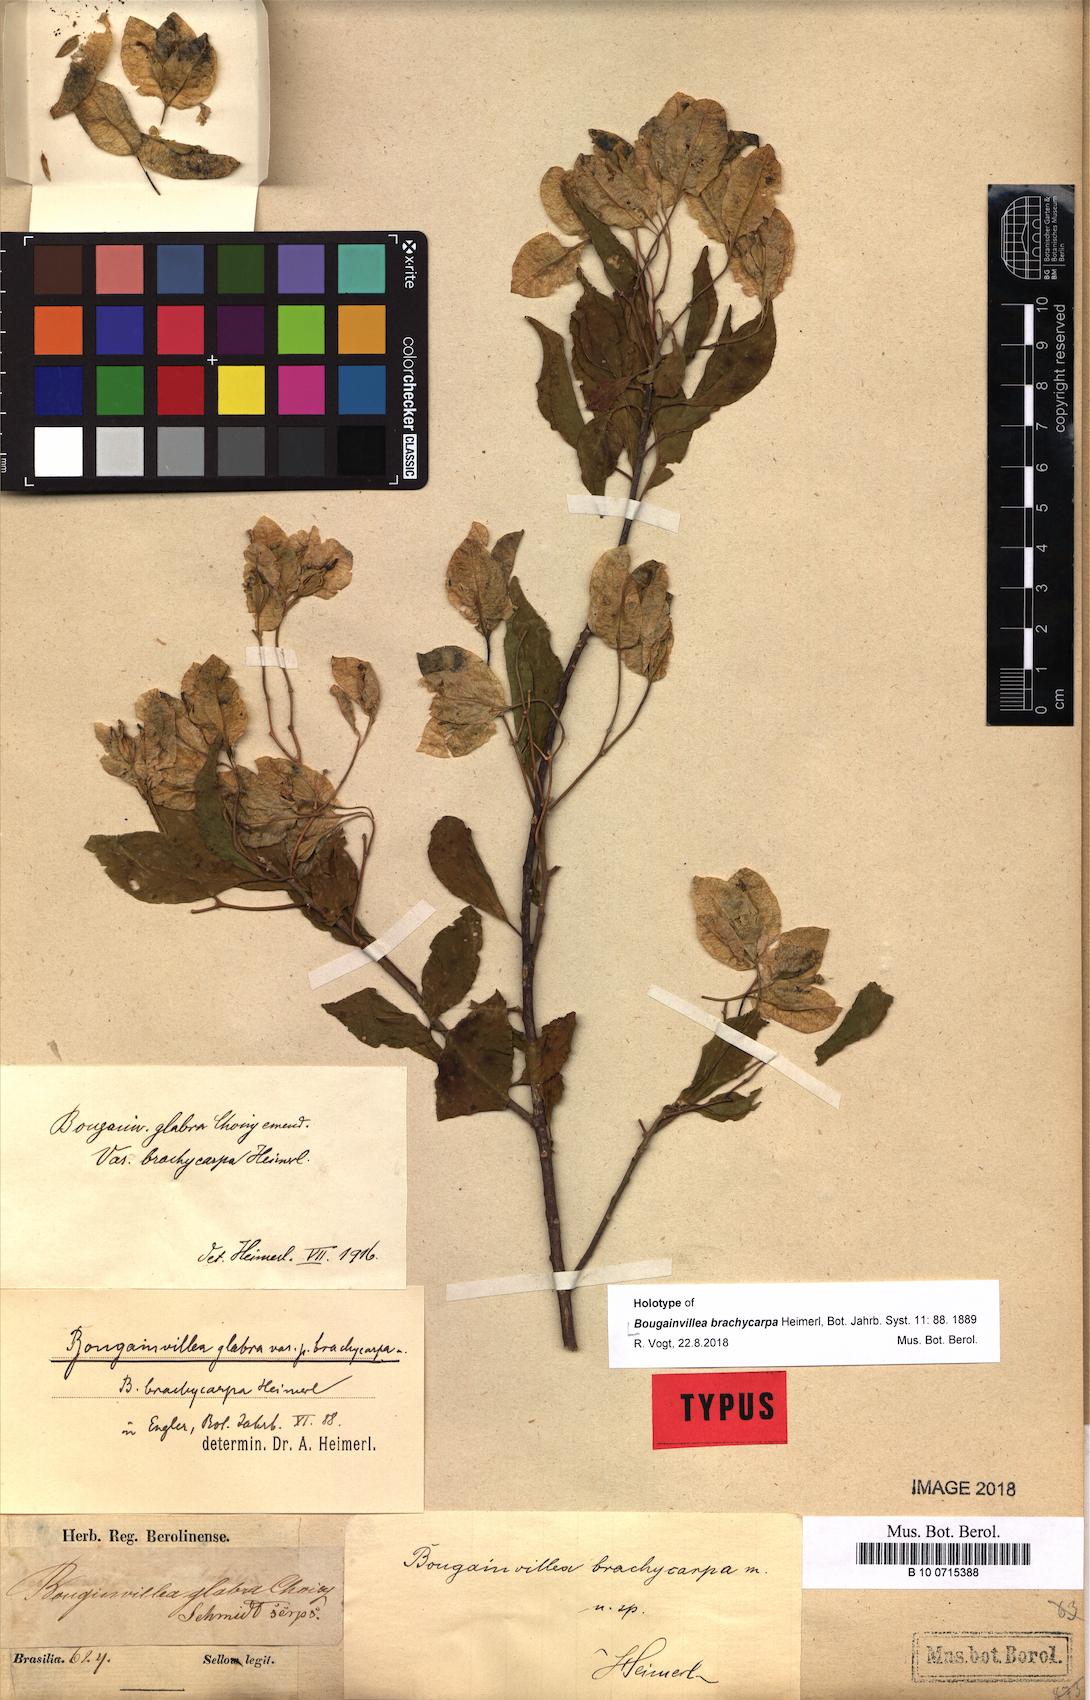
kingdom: Plantae
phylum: Tracheophyta
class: Magnoliopsida
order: Caryophyllales
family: Nyctaginaceae
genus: Bougainvillea
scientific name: Bougainvillea glabra
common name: Paperflower
